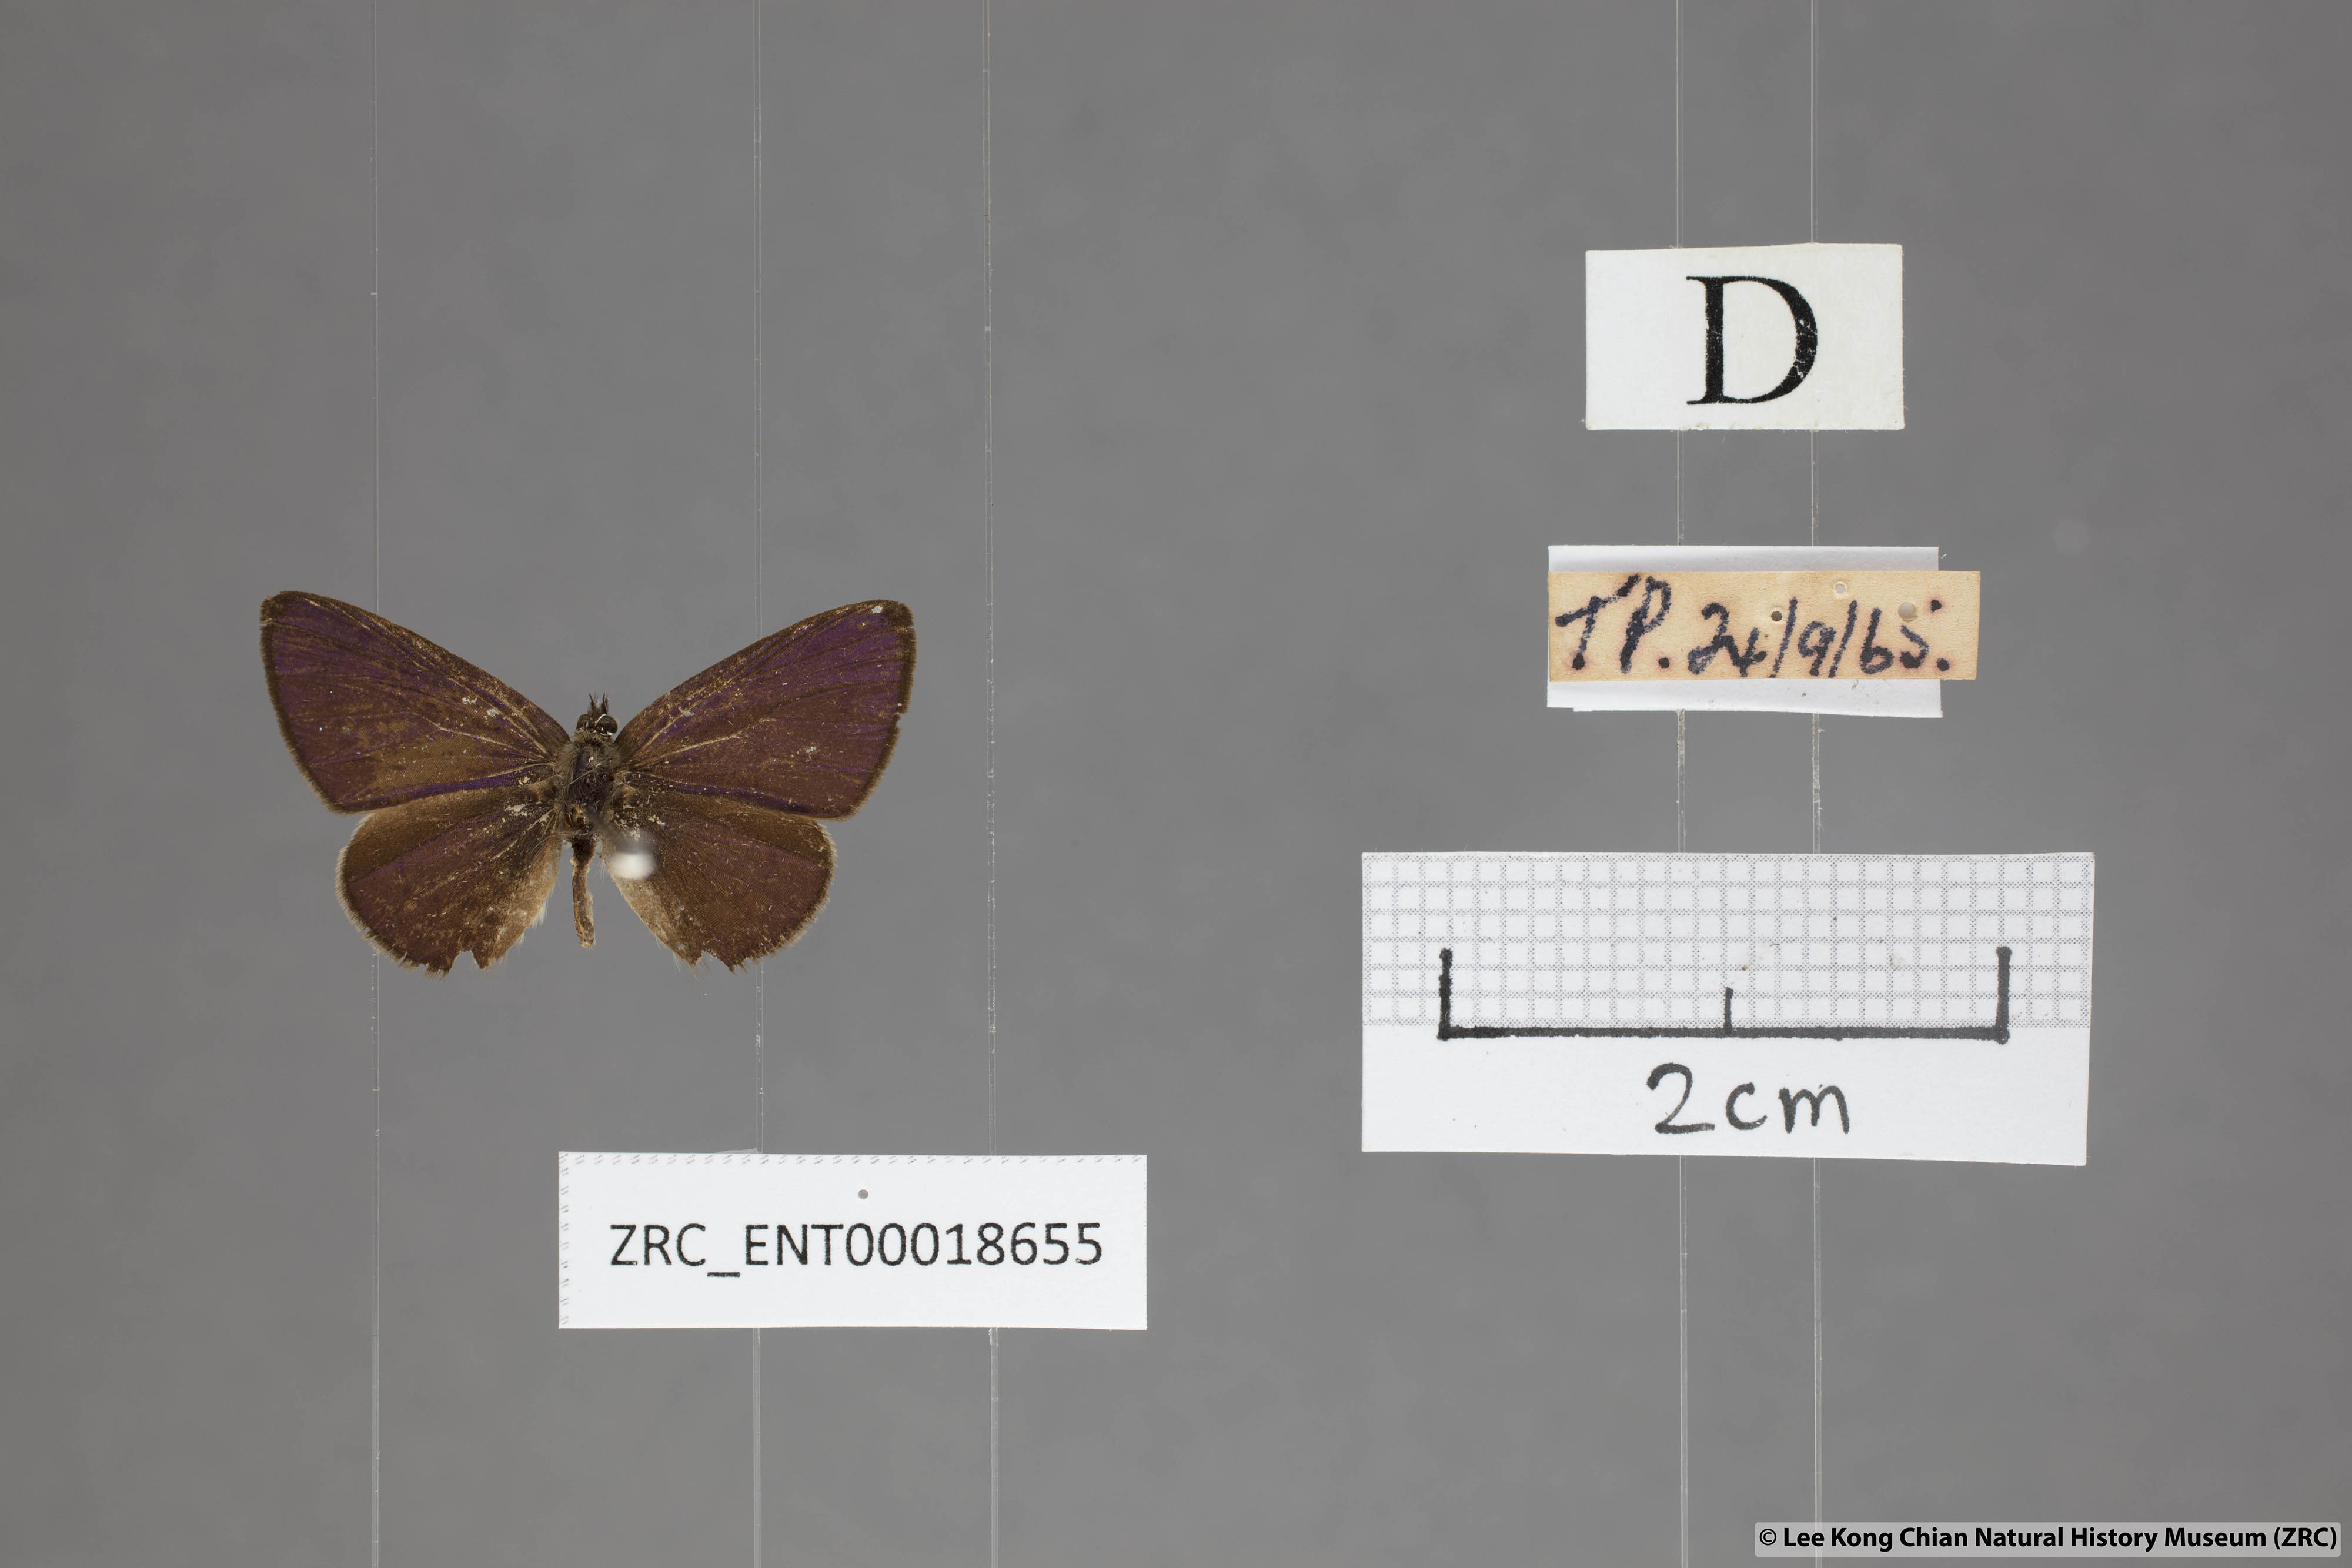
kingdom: Animalia
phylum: Arthropoda
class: Insecta
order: Lepidoptera
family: Lycaenidae
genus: Una
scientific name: Una usta
